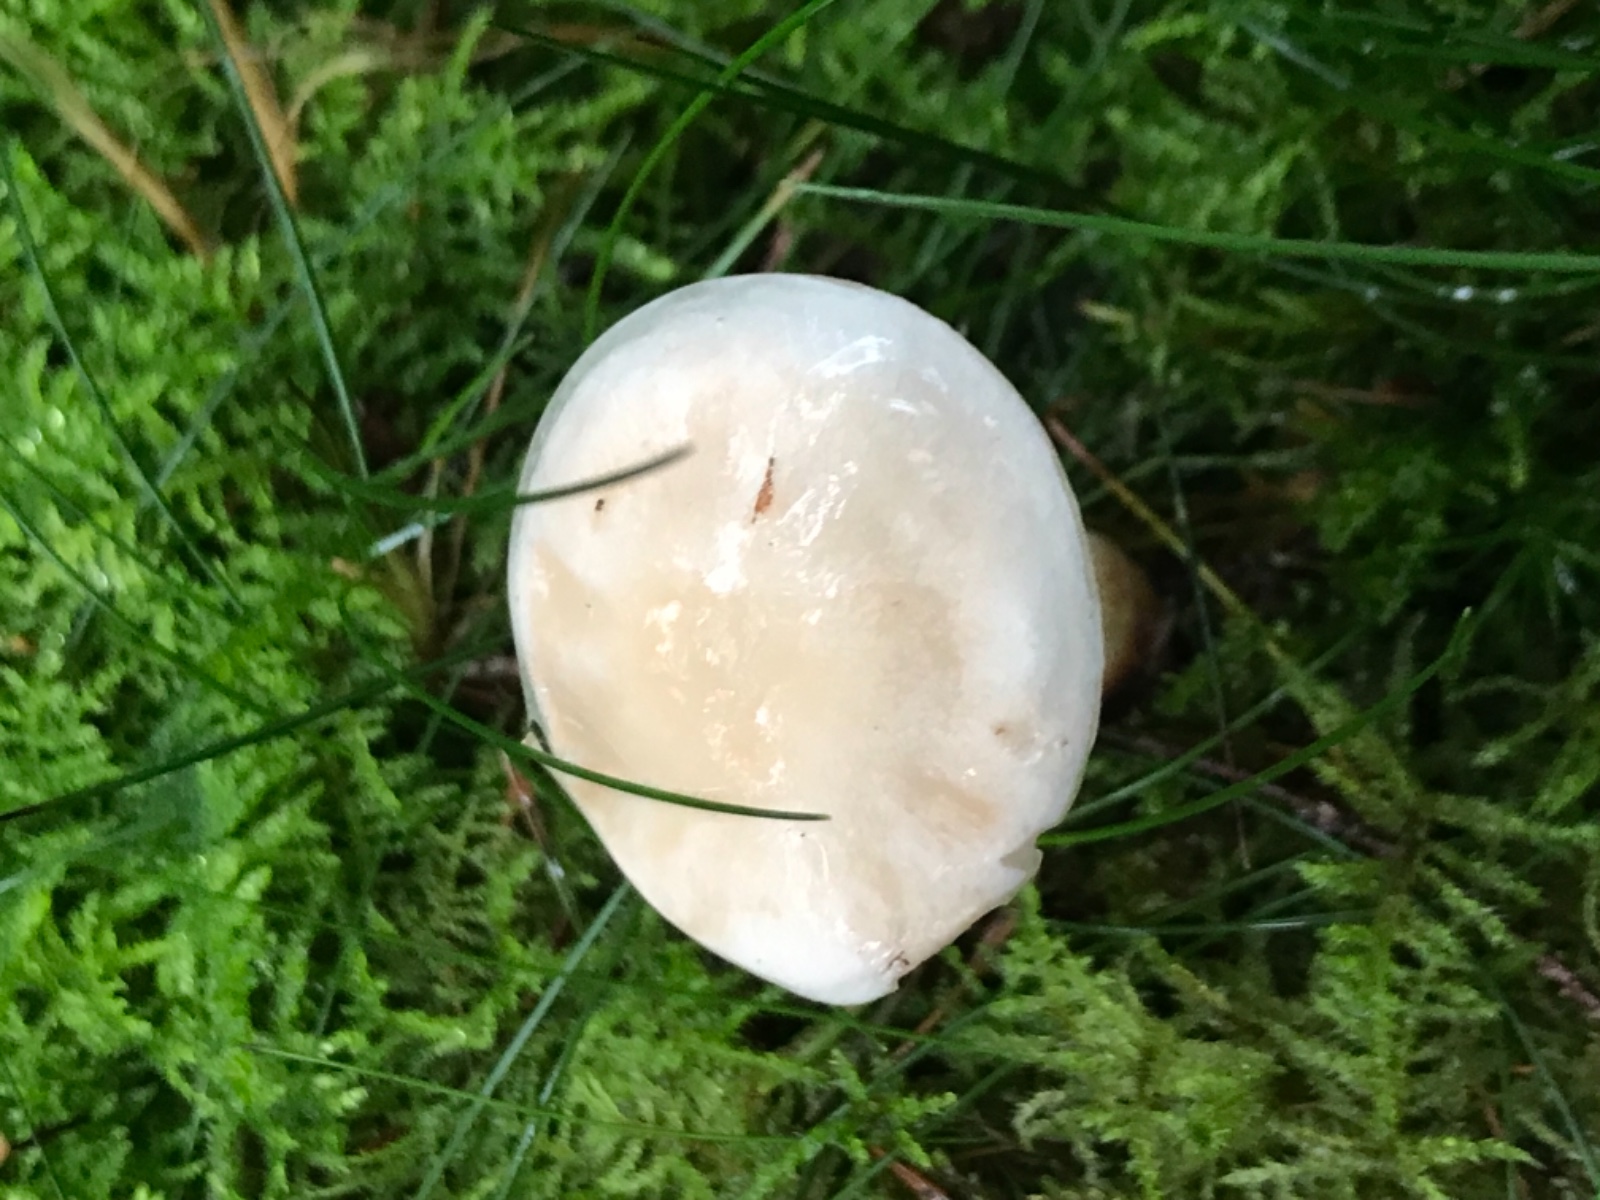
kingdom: Fungi
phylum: Basidiomycota
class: Agaricomycetes
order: Agaricales
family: Omphalotaceae
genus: Rhodocollybia
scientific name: Rhodocollybia maculata
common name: plettet fladhat
